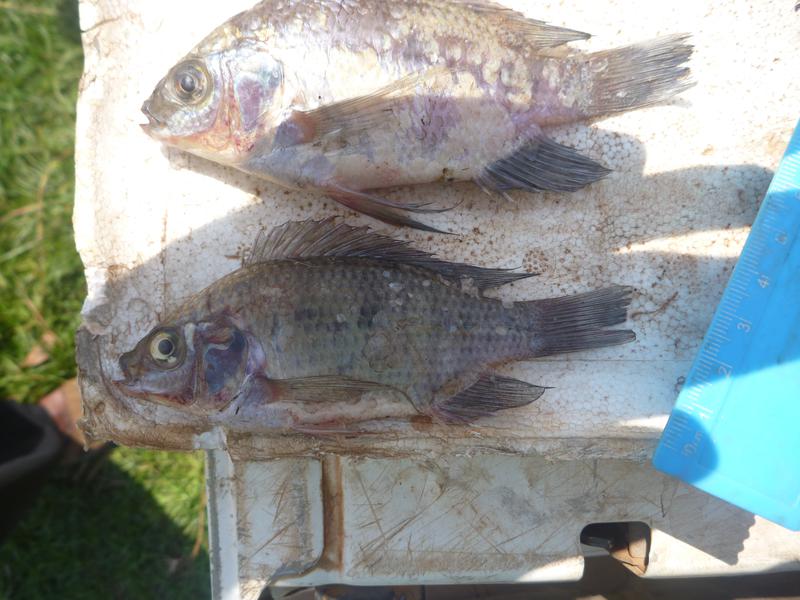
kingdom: Animalia
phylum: Chordata
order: Perciformes
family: Cichlidae
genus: Oreochromis
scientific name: Oreochromis upembae
